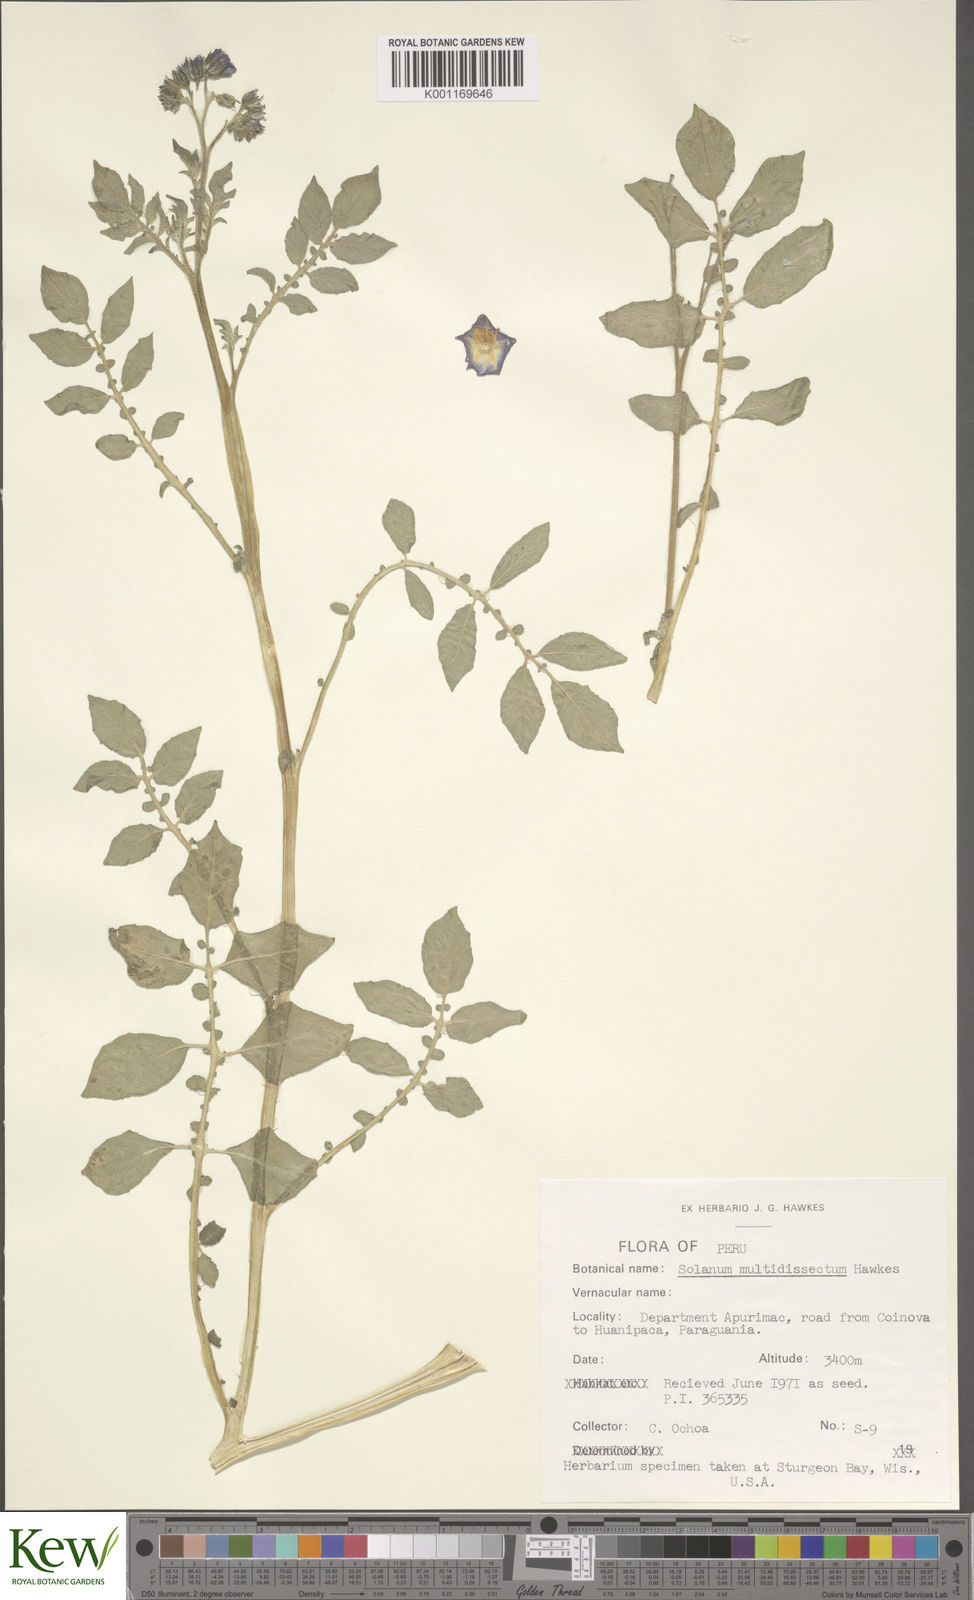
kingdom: Plantae
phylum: Tracheophyta
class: Magnoliopsida
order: Solanales
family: Solanaceae
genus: Solanum
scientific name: Solanum candolleanum
